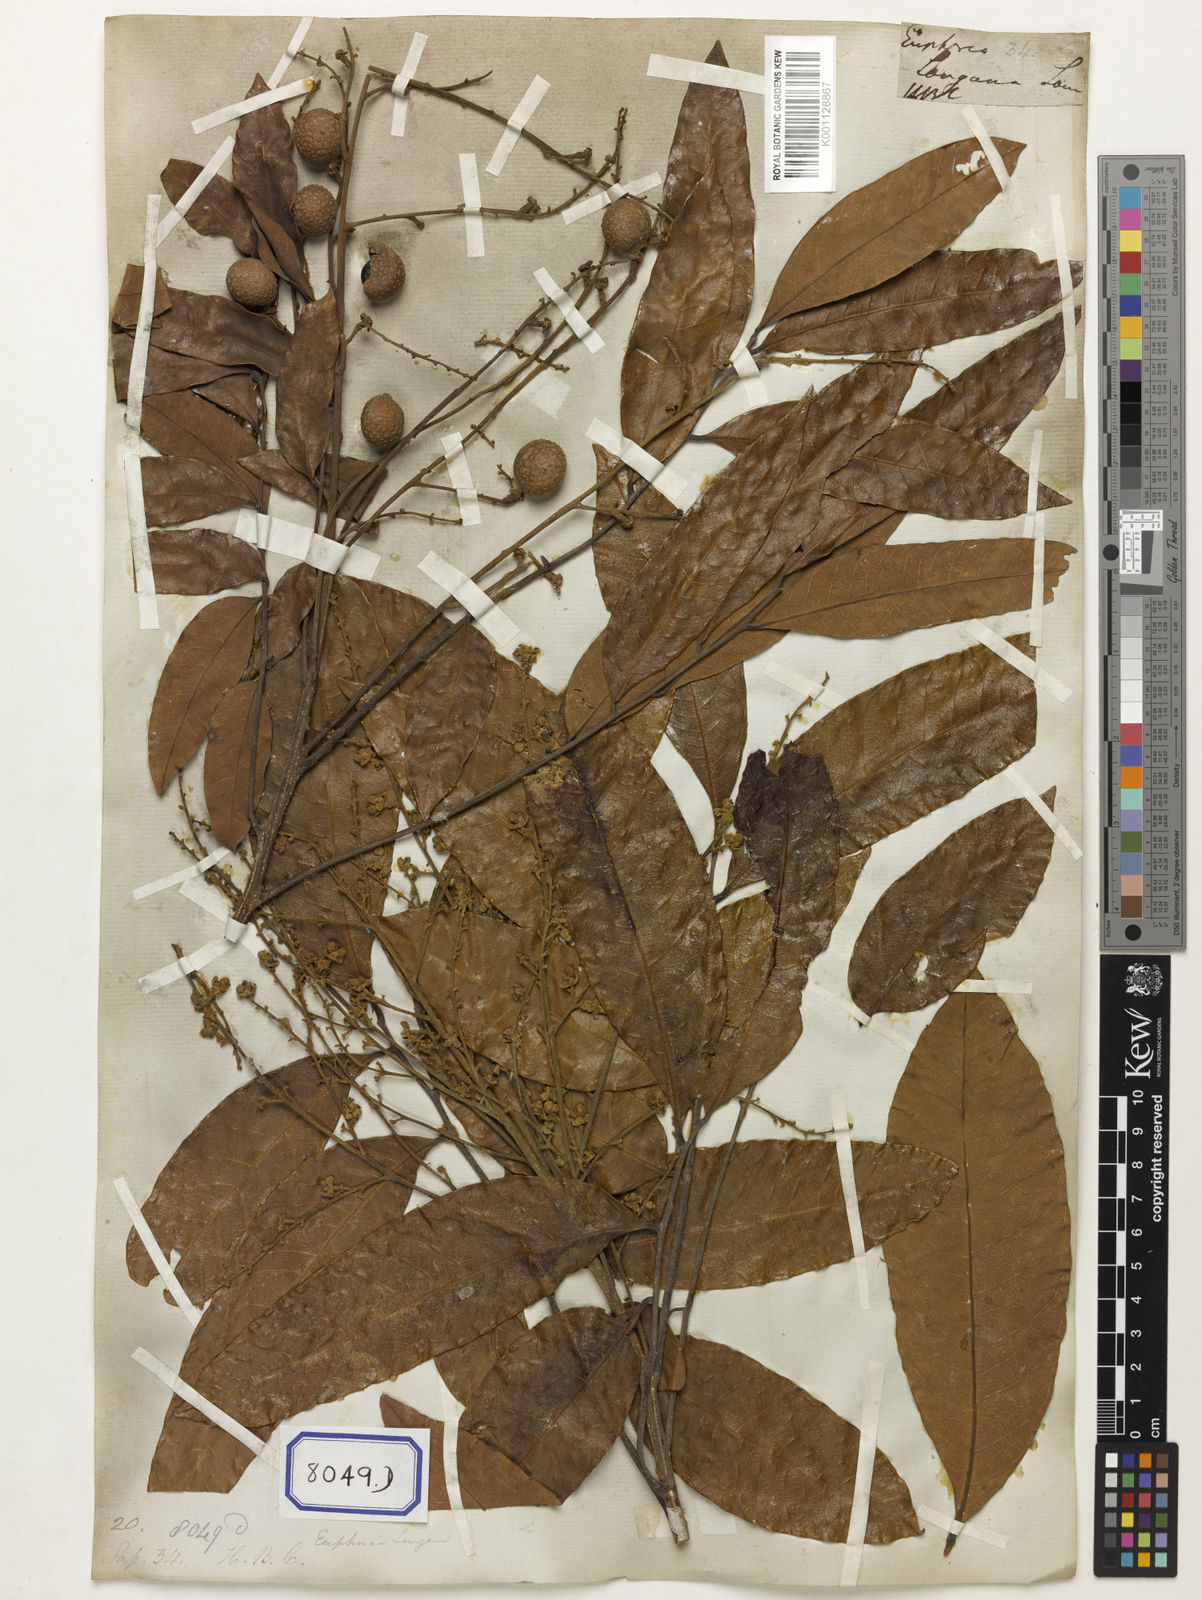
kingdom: Plantae
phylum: Tracheophyta
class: Magnoliopsida
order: Sapindales
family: Sapindaceae
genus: Dimocarpus
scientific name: Dimocarpus longan
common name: Longan
